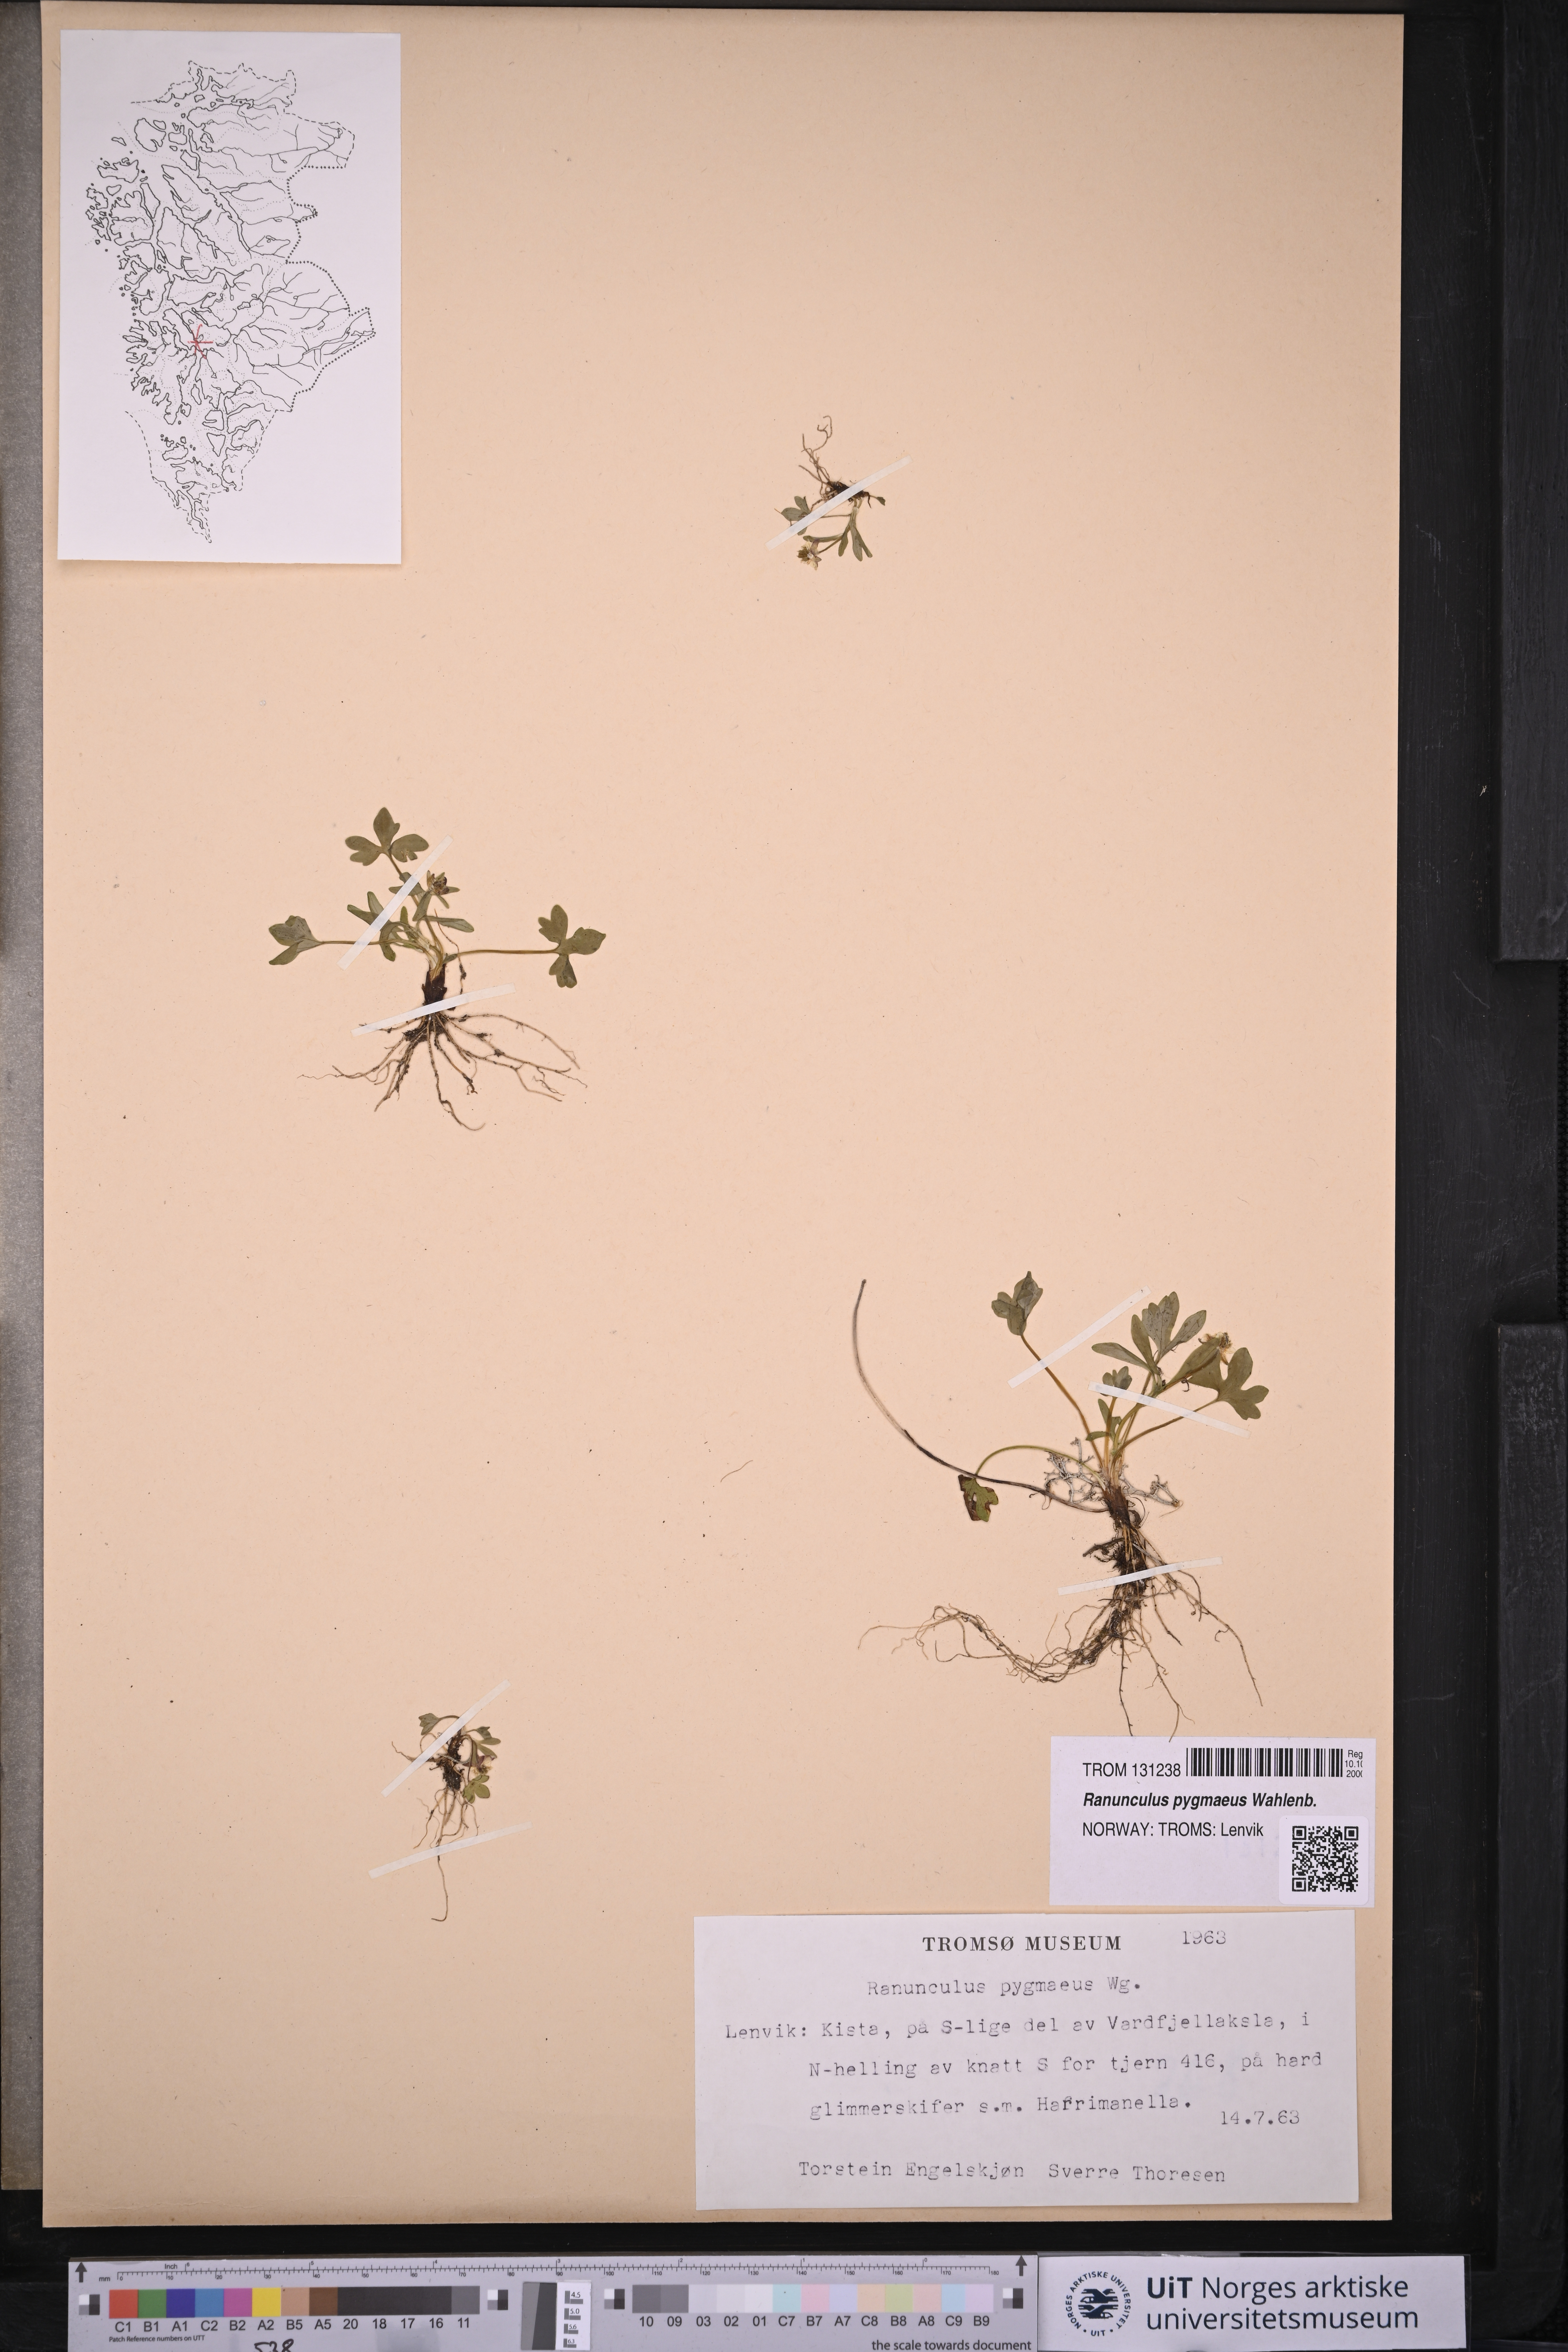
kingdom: Plantae
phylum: Tracheophyta
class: Magnoliopsida
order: Ranunculales
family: Ranunculaceae
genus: Ranunculus
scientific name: Ranunculus pygmaeus
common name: Dwarf buttercup
